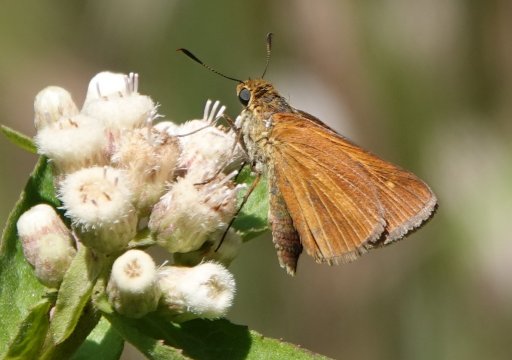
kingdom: Animalia
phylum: Arthropoda
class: Insecta
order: Lepidoptera
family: Hesperiidae
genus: Euphyes
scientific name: Euphyes dion
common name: Dion Skipper
